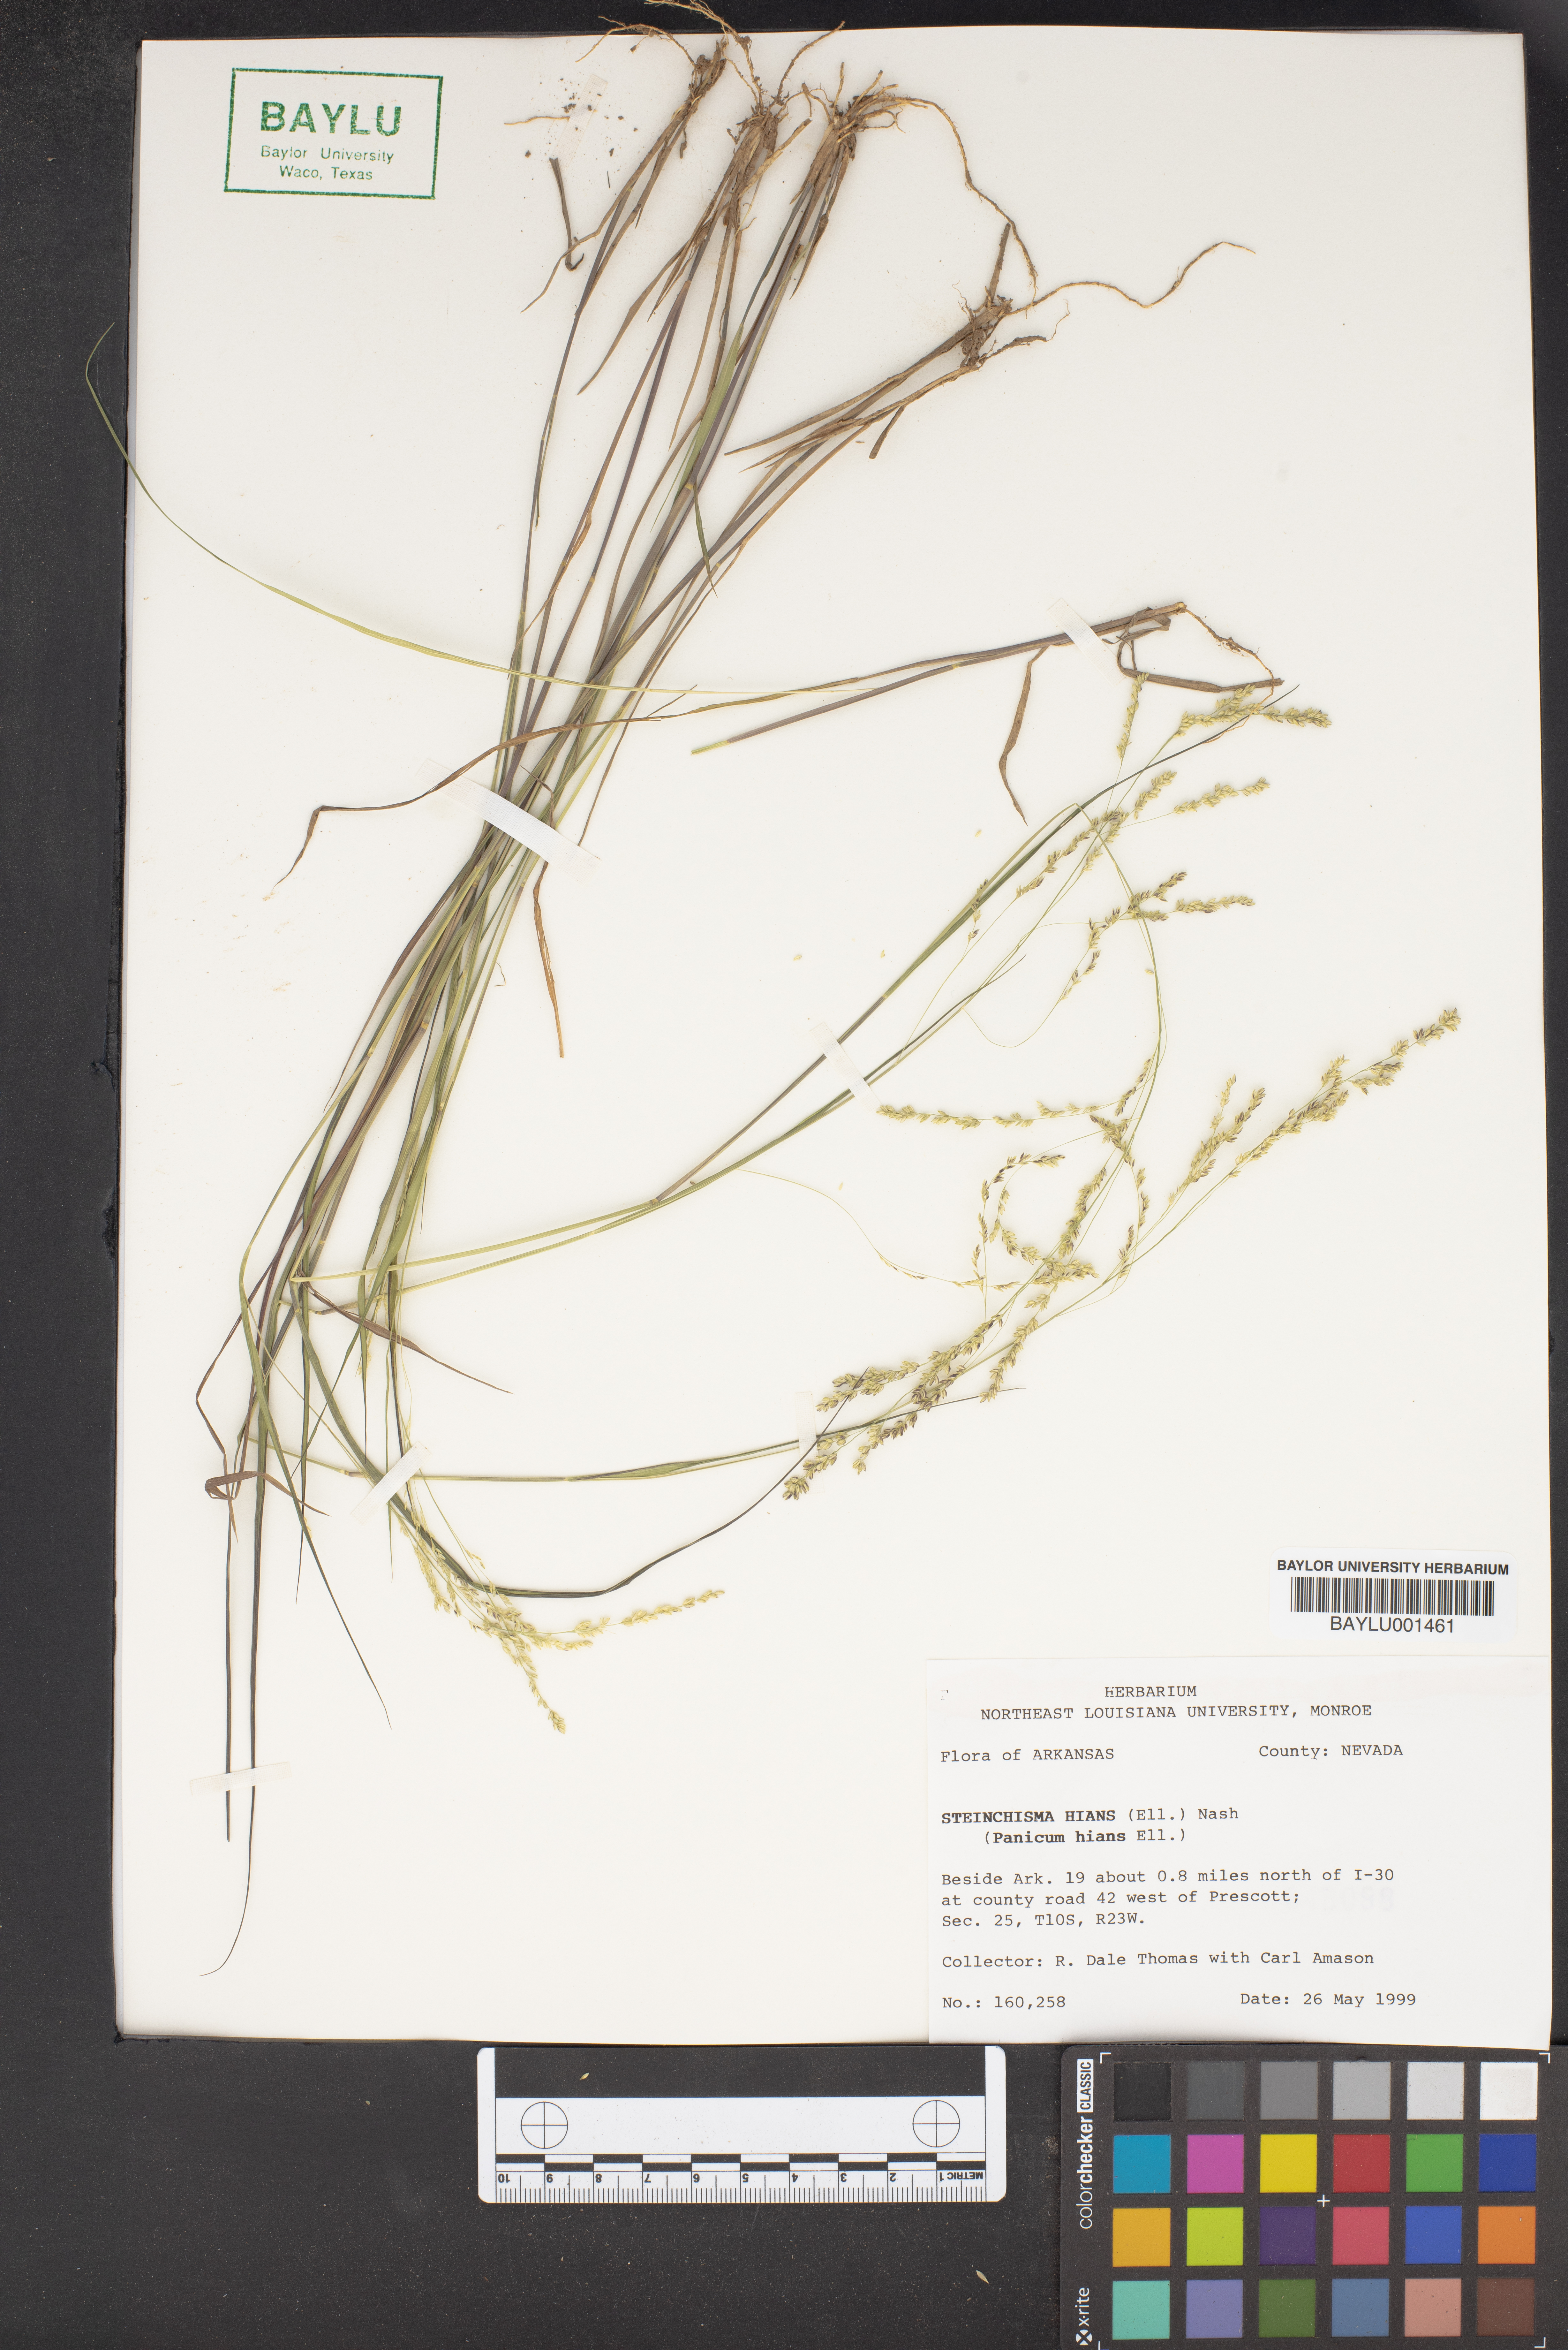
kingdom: Plantae
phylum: Tracheophyta
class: Liliopsida
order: Poales
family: Poaceae
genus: Steinchisma
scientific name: Steinchisma hians
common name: Gaping panic grass
